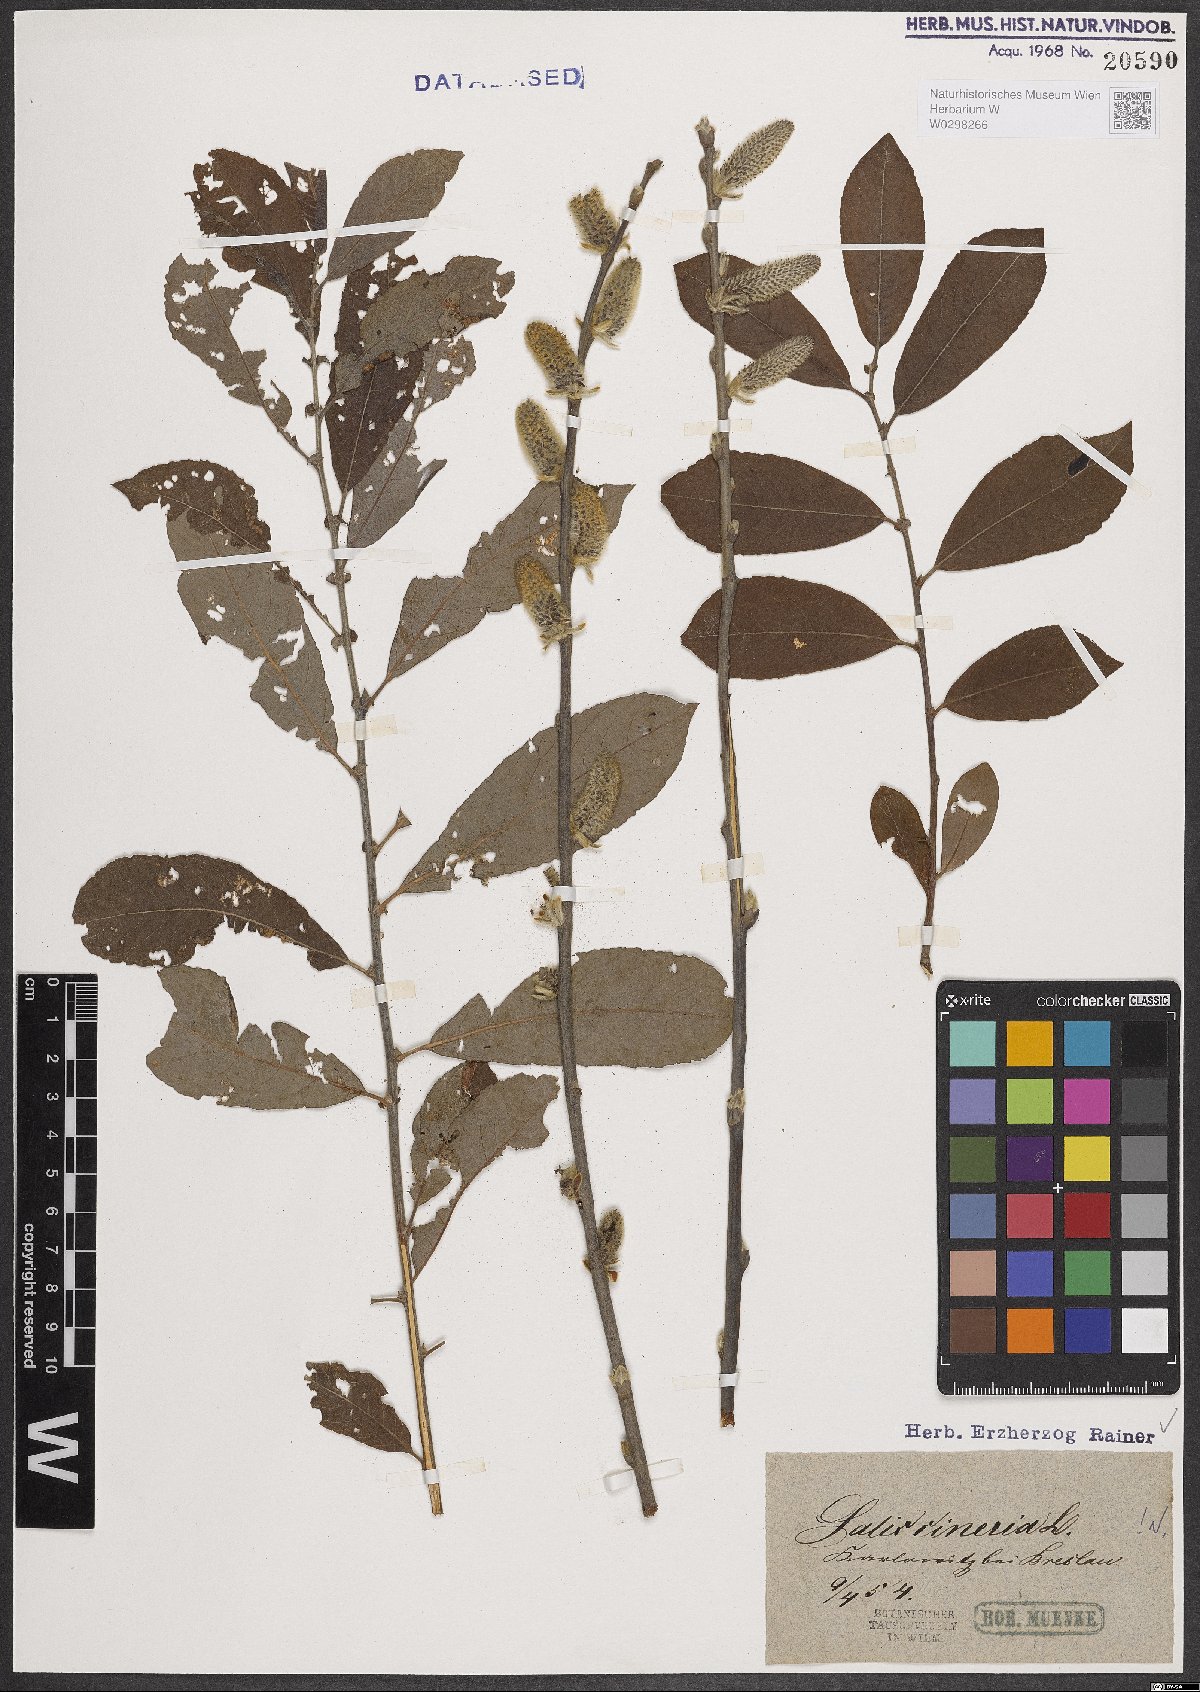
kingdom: Plantae
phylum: Tracheophyta
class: Magnoliopsida
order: Malpighiales
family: Salicaceae
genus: Salix
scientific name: Salix cinerea
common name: Common sallow
